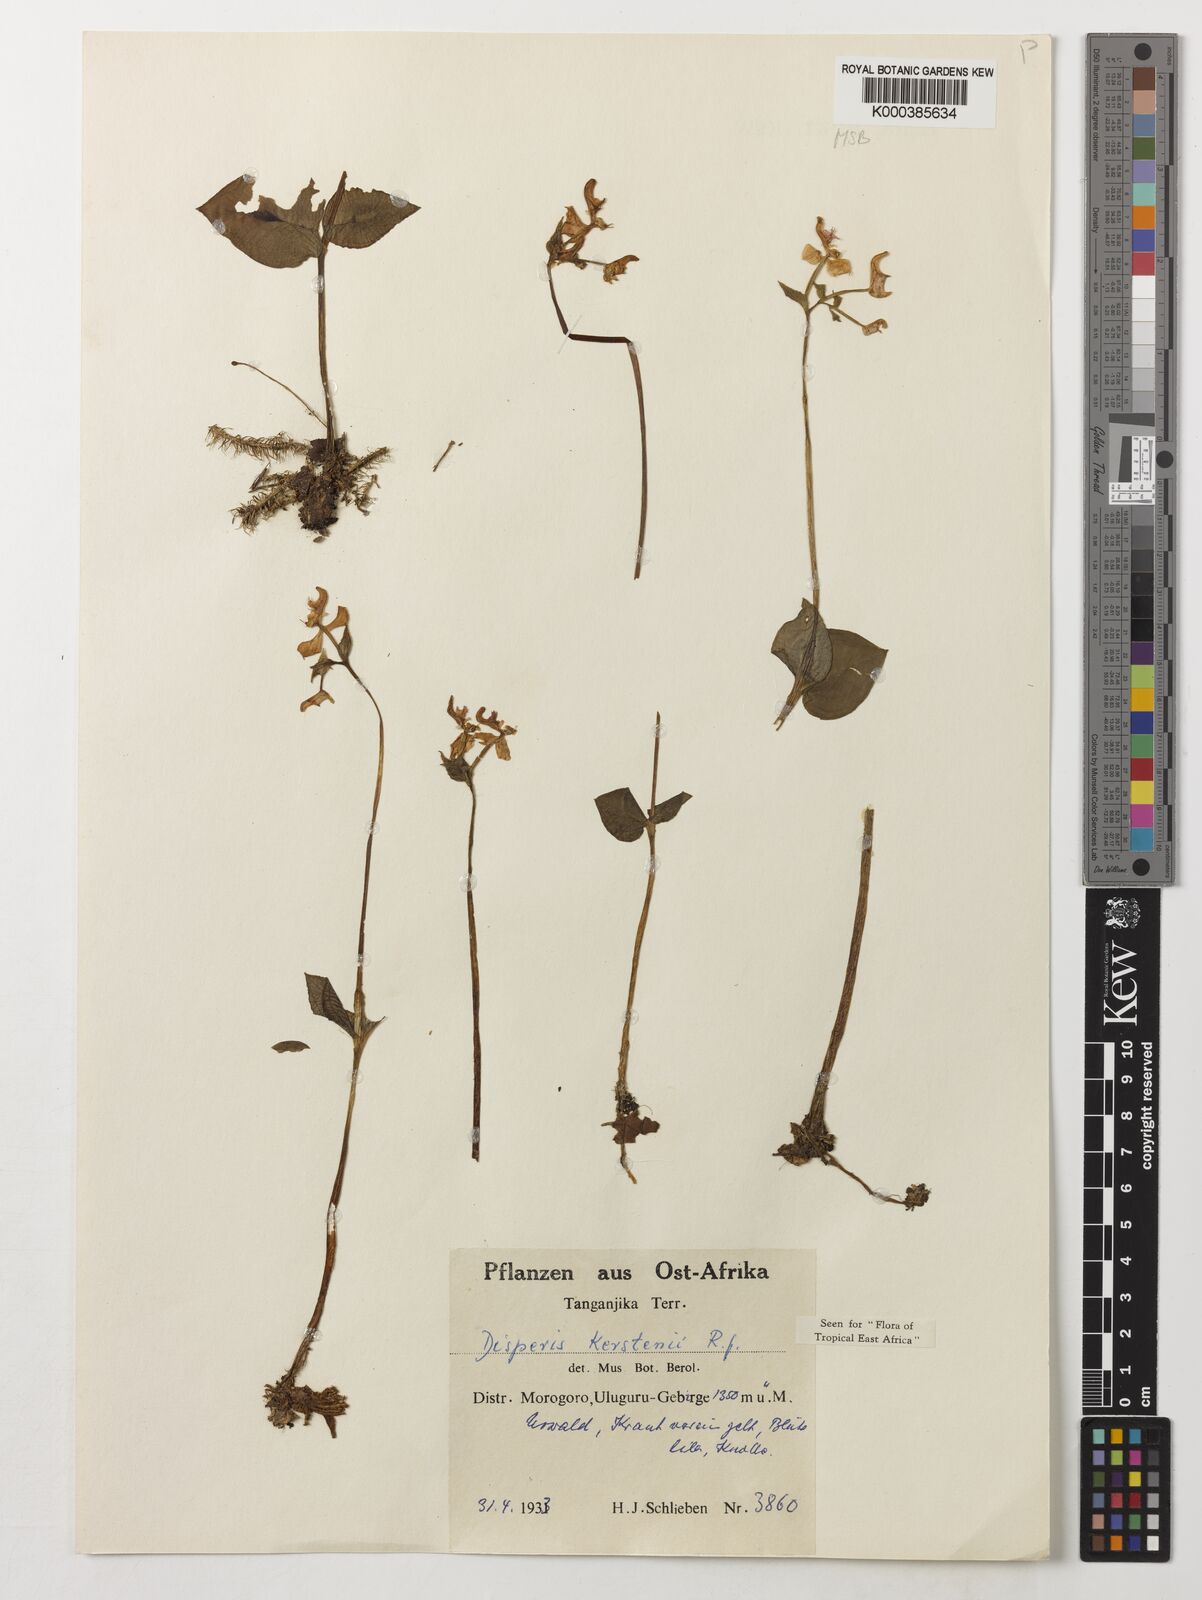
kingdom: Plantae
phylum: Tracheophyta
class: Liliopsida
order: Asparagales
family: Orchidaceae
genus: Disperis
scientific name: Disperis kerstenii
